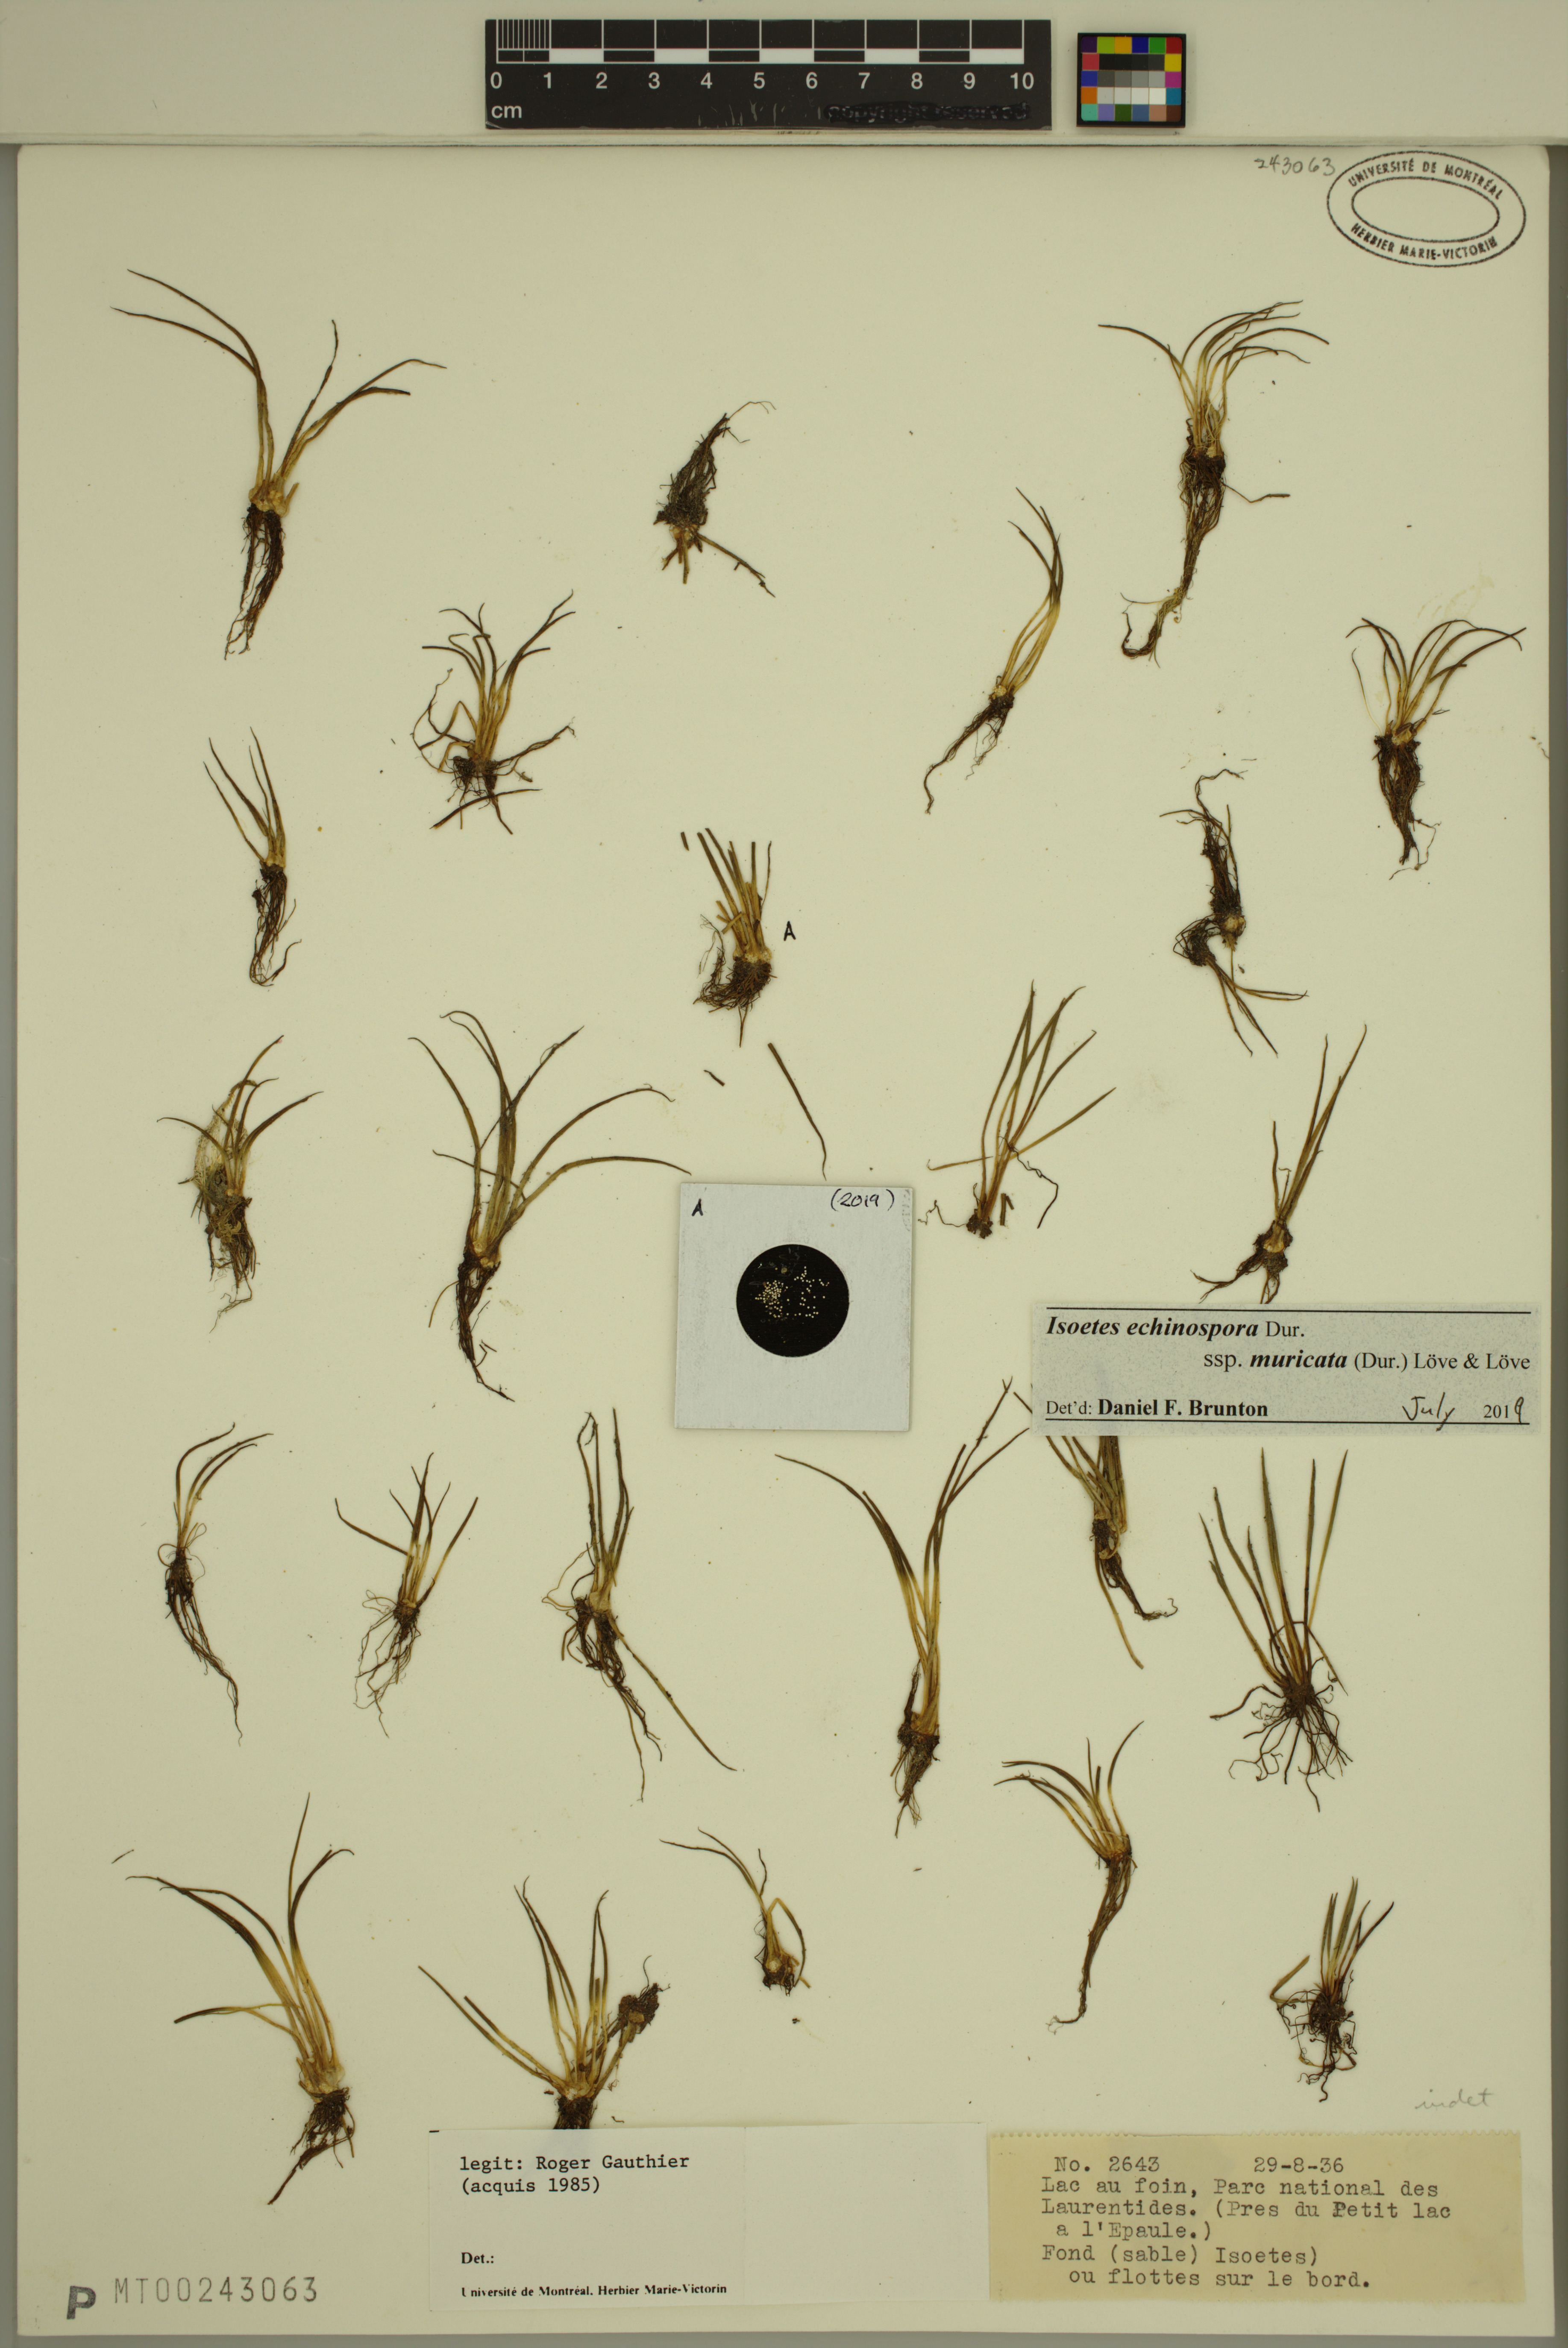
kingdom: Plantae
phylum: Tracheophyta
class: Lycopodiopsida
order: Isoetales
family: Isoetaceae
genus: Isoetes
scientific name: Isoetes echinospora
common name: Spring quillwort
